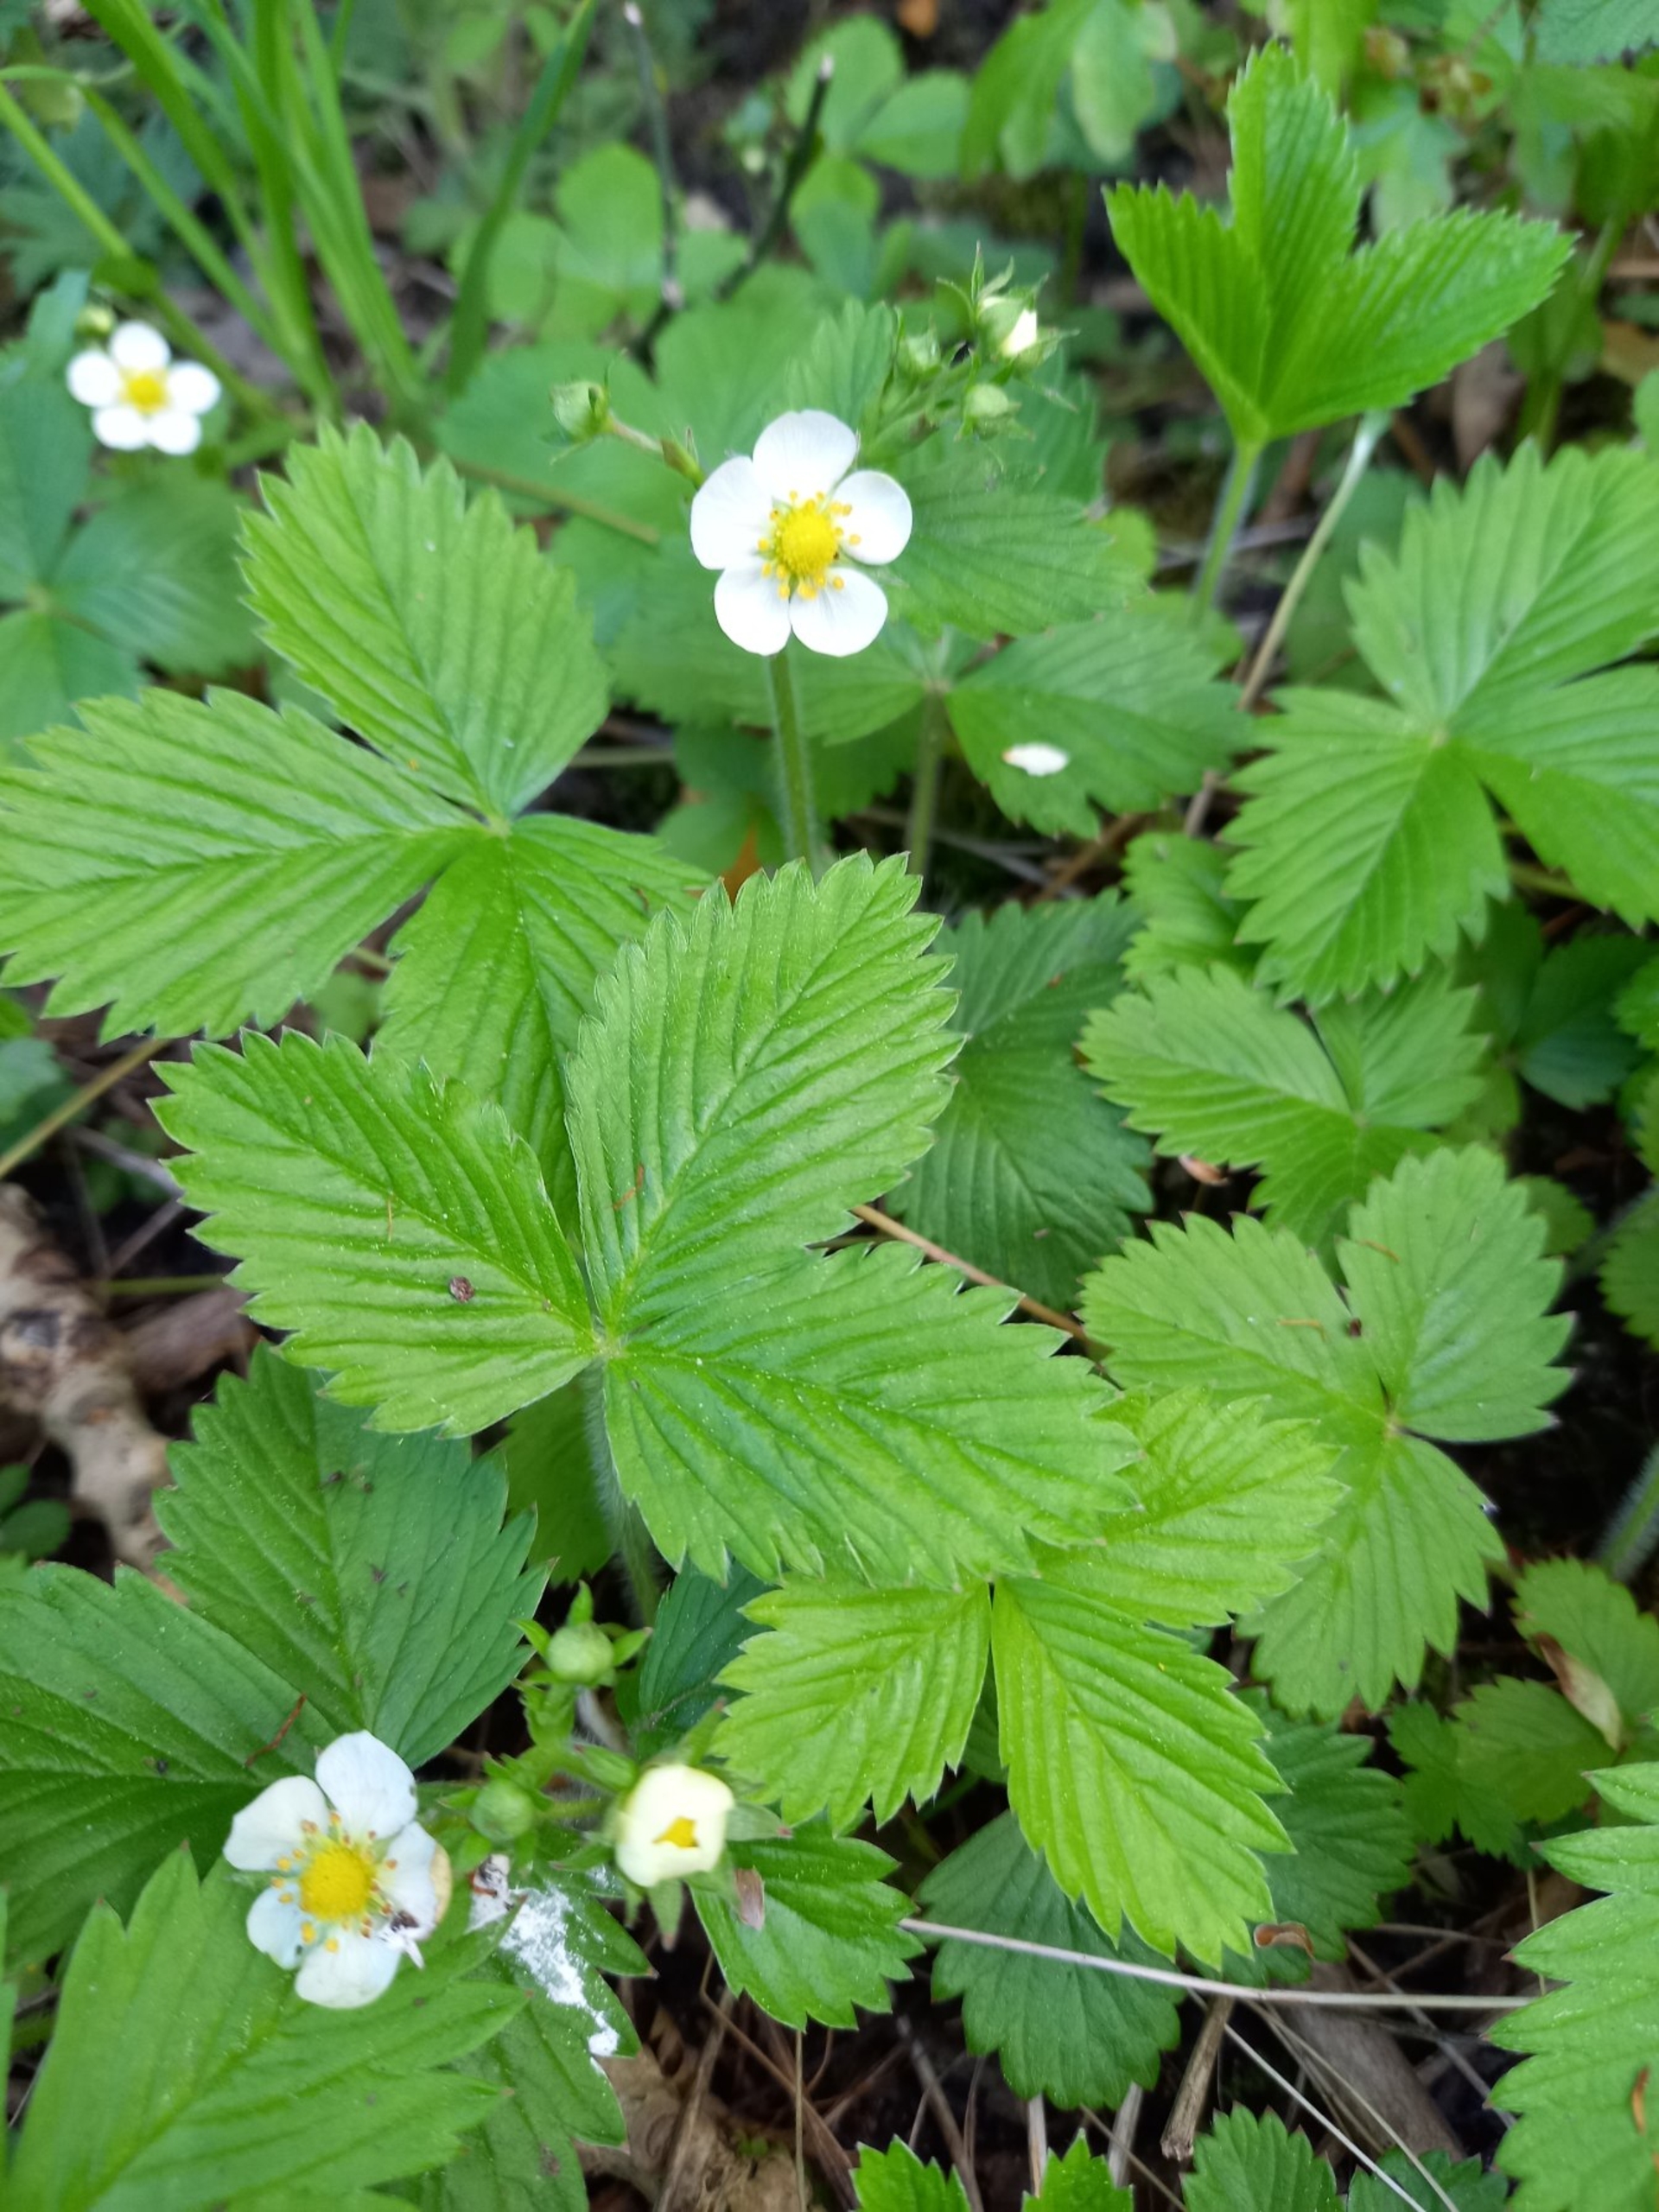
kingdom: Plantae
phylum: Tracheophyta
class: Magnoliopsida
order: Rosales
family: Rosaceae
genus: Fragaria
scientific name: Fragaria vesca
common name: Skov-jordbær
